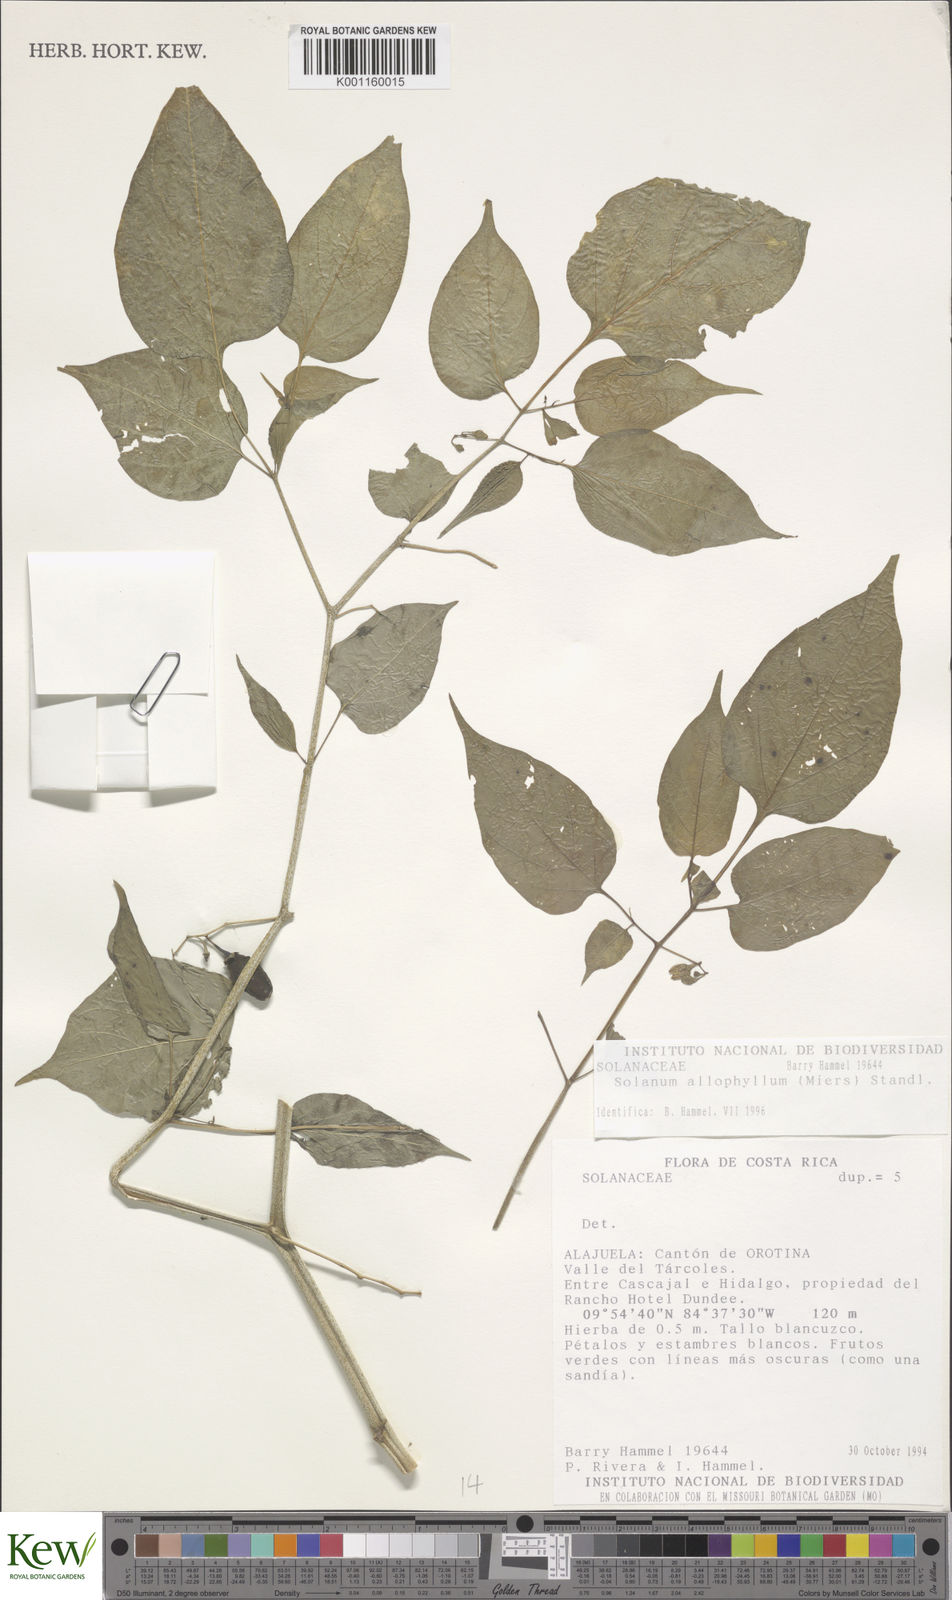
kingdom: Plantae
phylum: Tracheophyta
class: Magnoliopsida
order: Solanales
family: Solanaceae
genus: Solanum
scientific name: Solanum allophyllum
